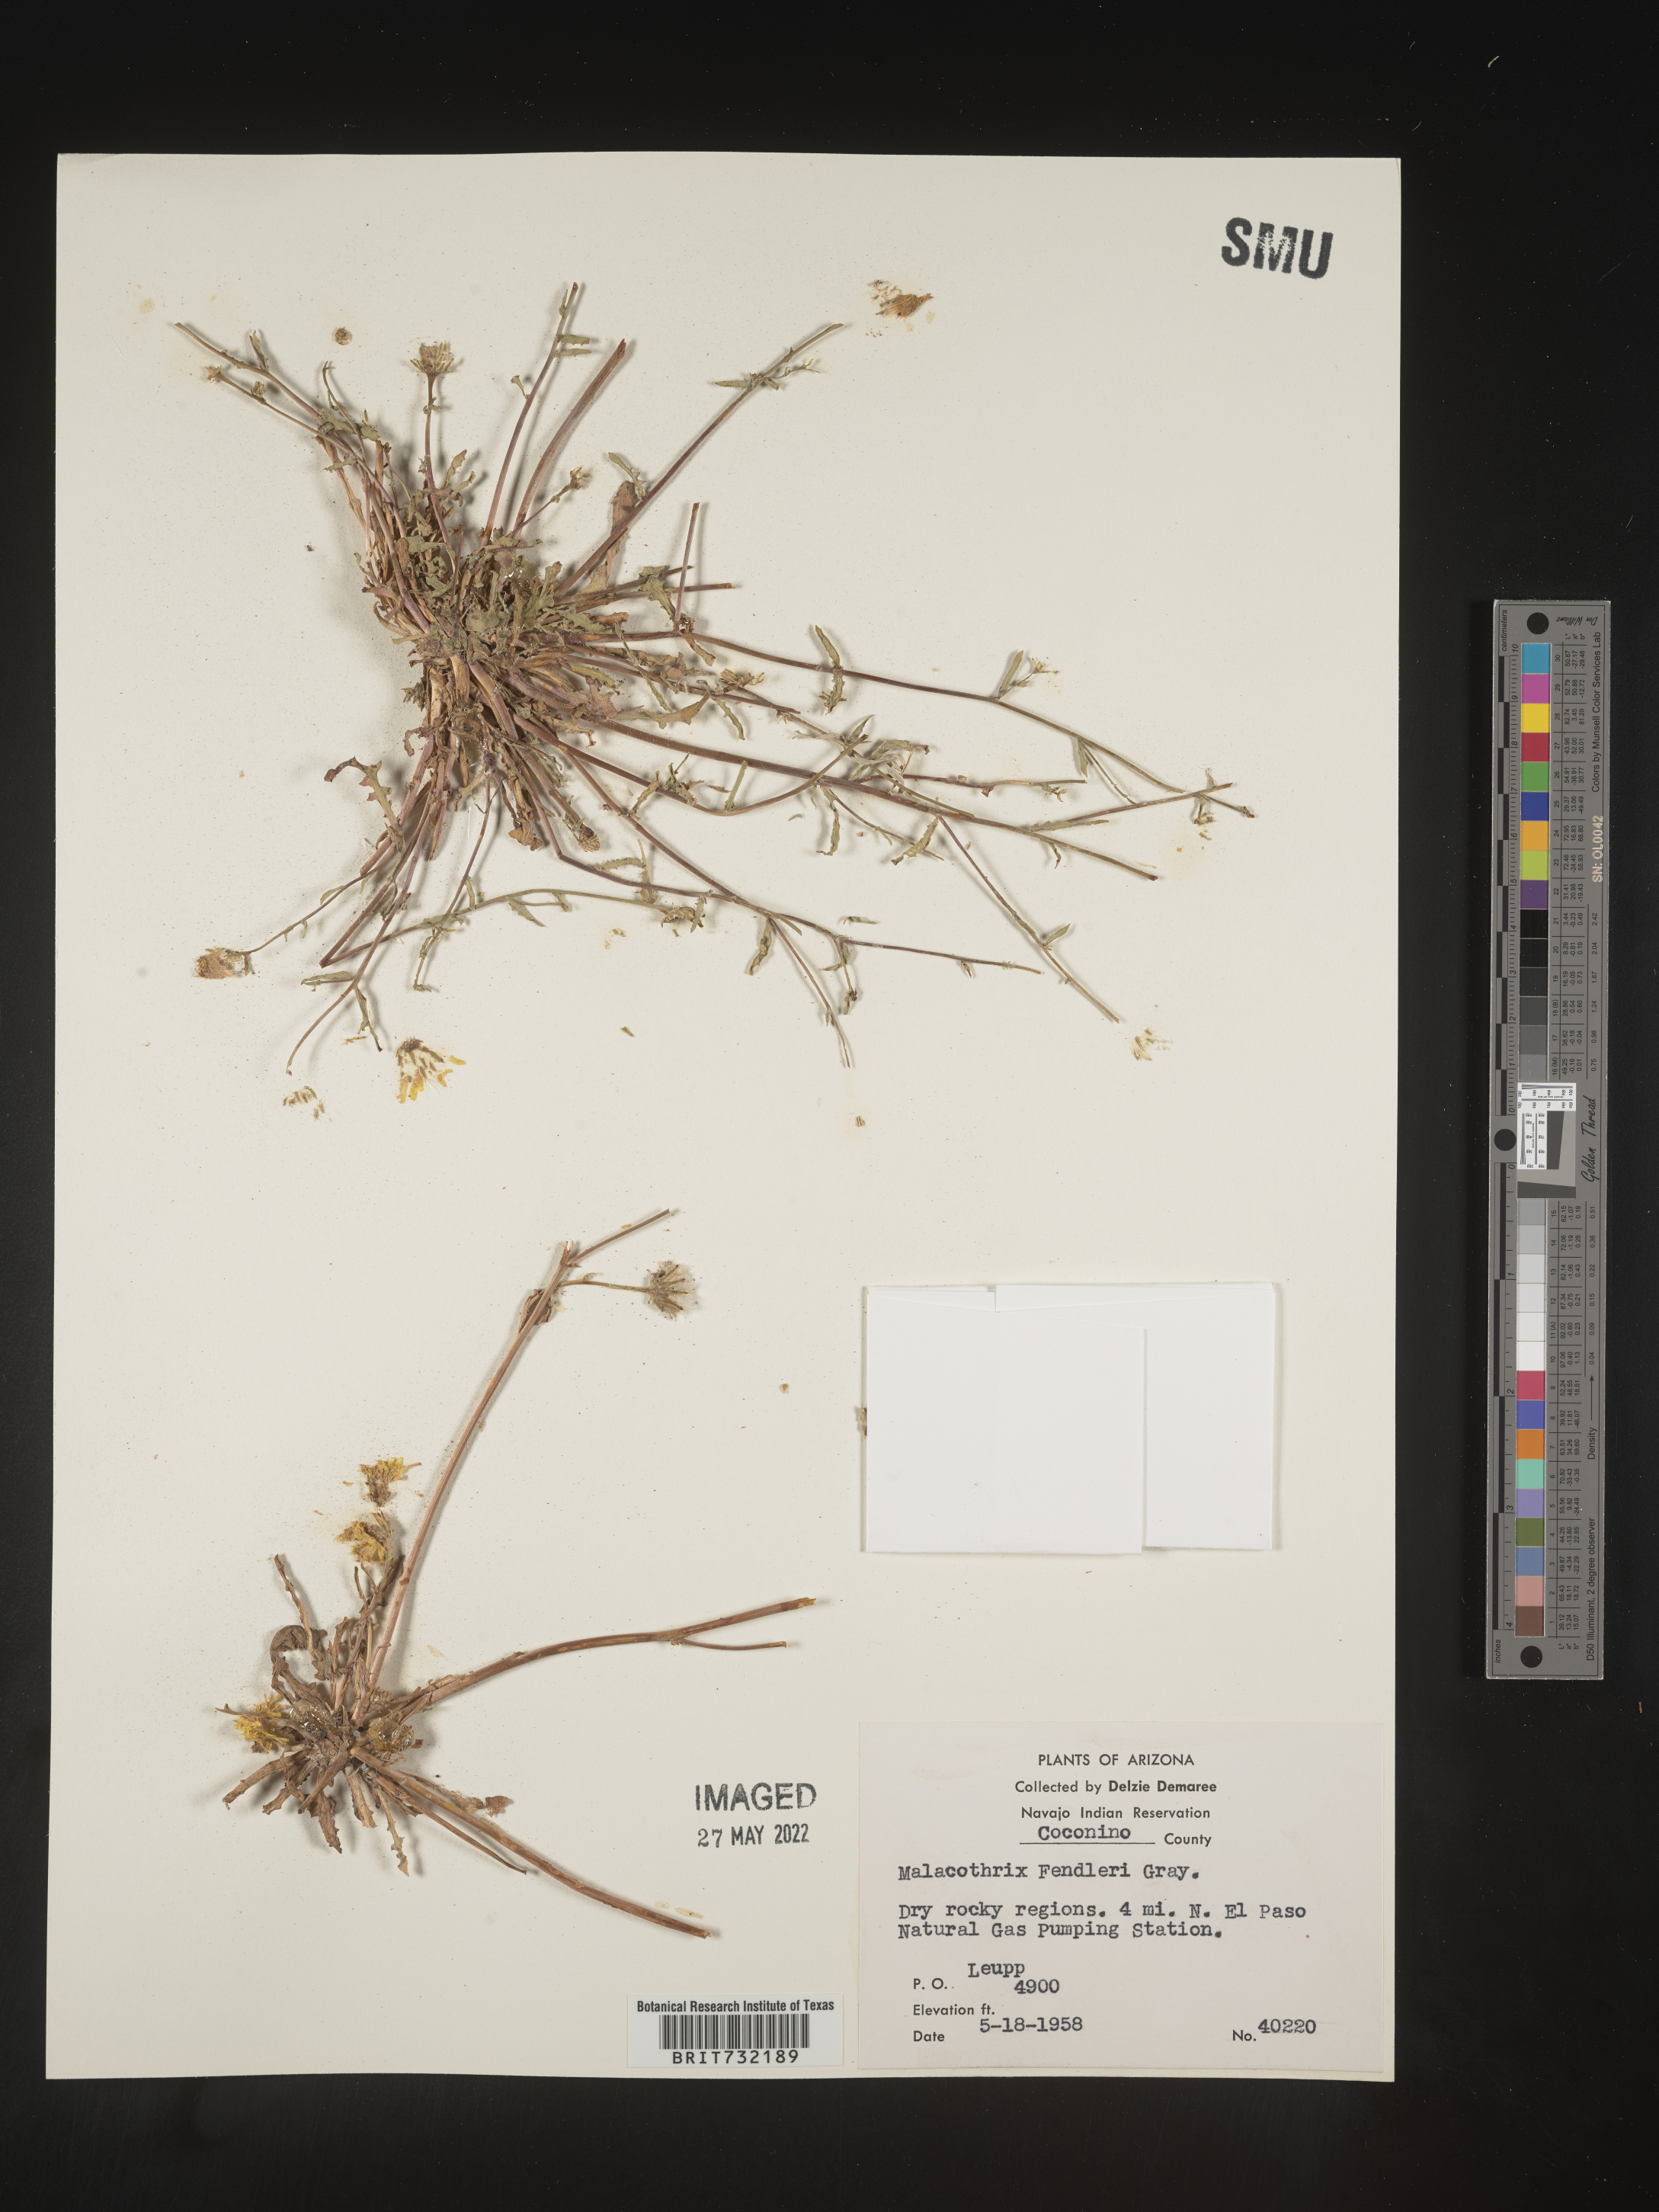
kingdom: Plantae
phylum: Tracheophyta
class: Magnoliopsida
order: Asterales
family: Asteraceae
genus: Malacothrix
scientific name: Malacothrix
